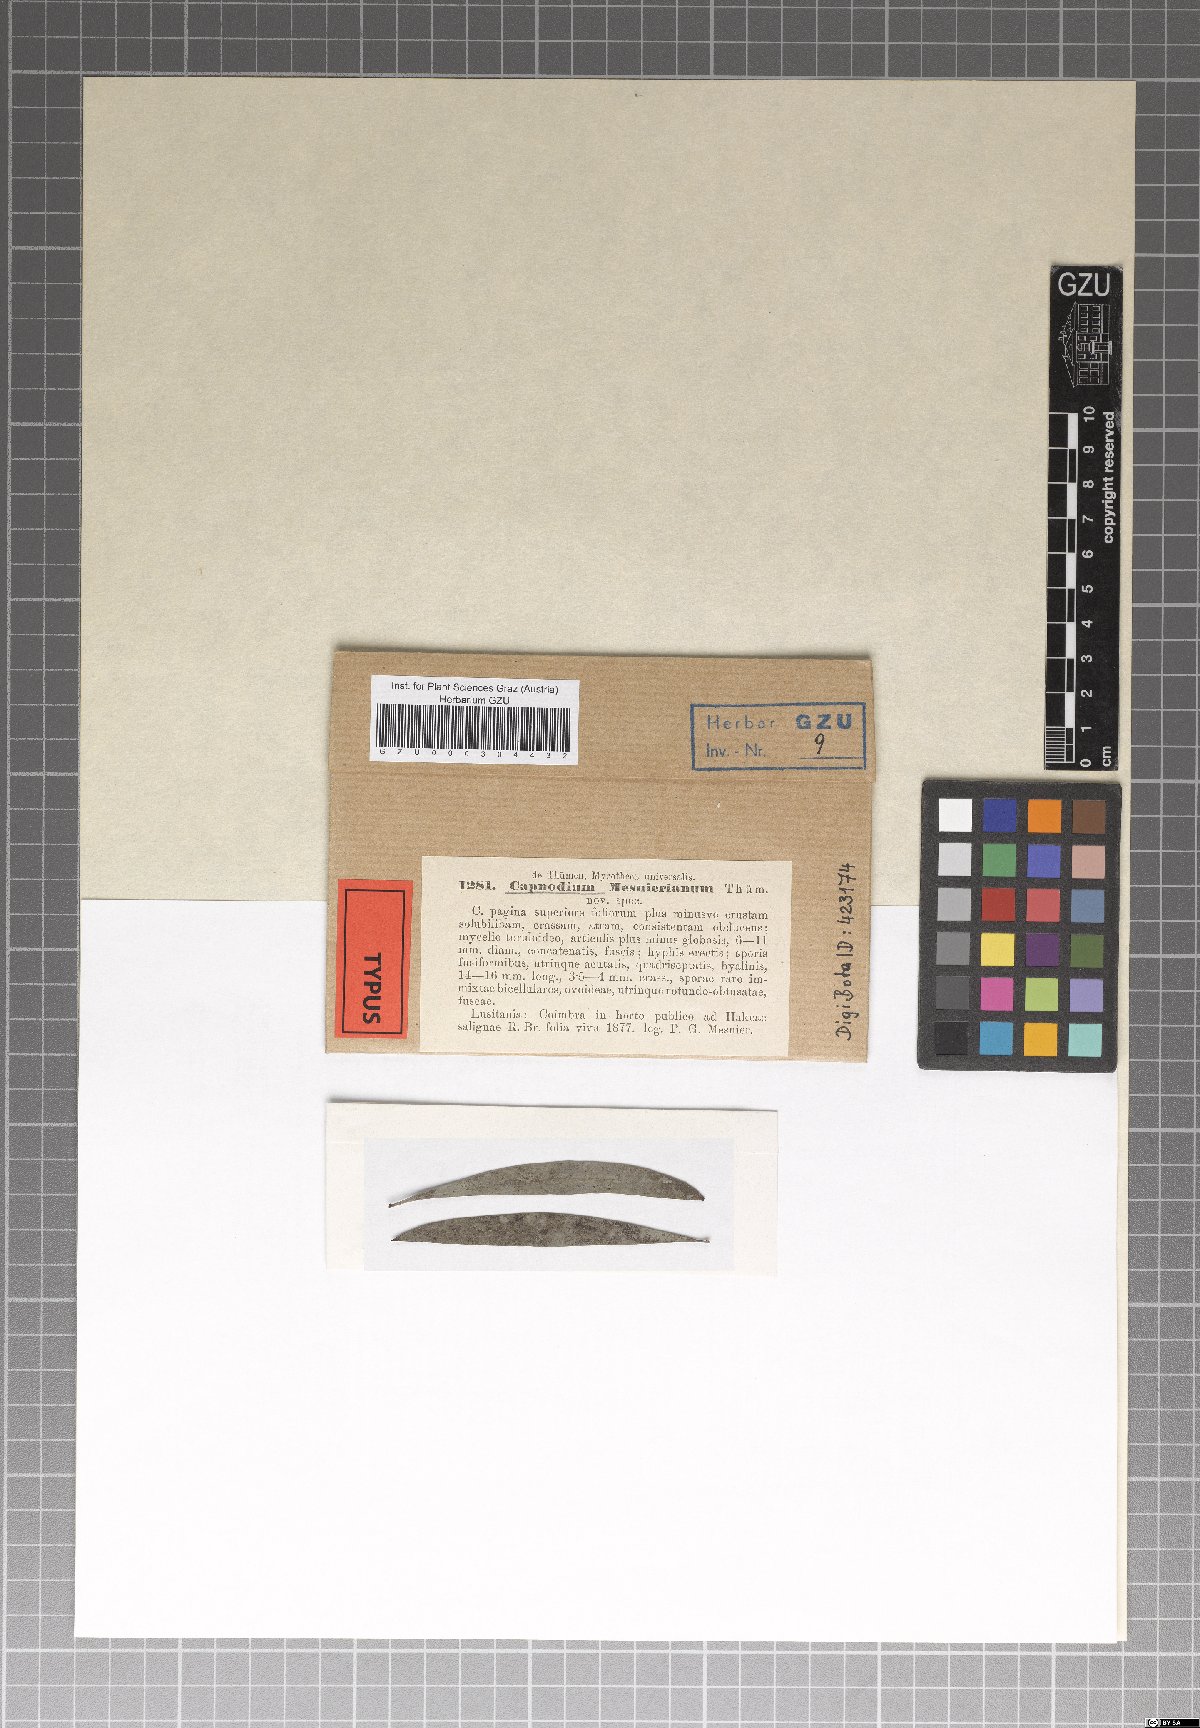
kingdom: Fungi
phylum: Ascomycota
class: Dothideomycetes
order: Capnodiales
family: Capnodiaceae
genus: Capnodium
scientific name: Capnodium
